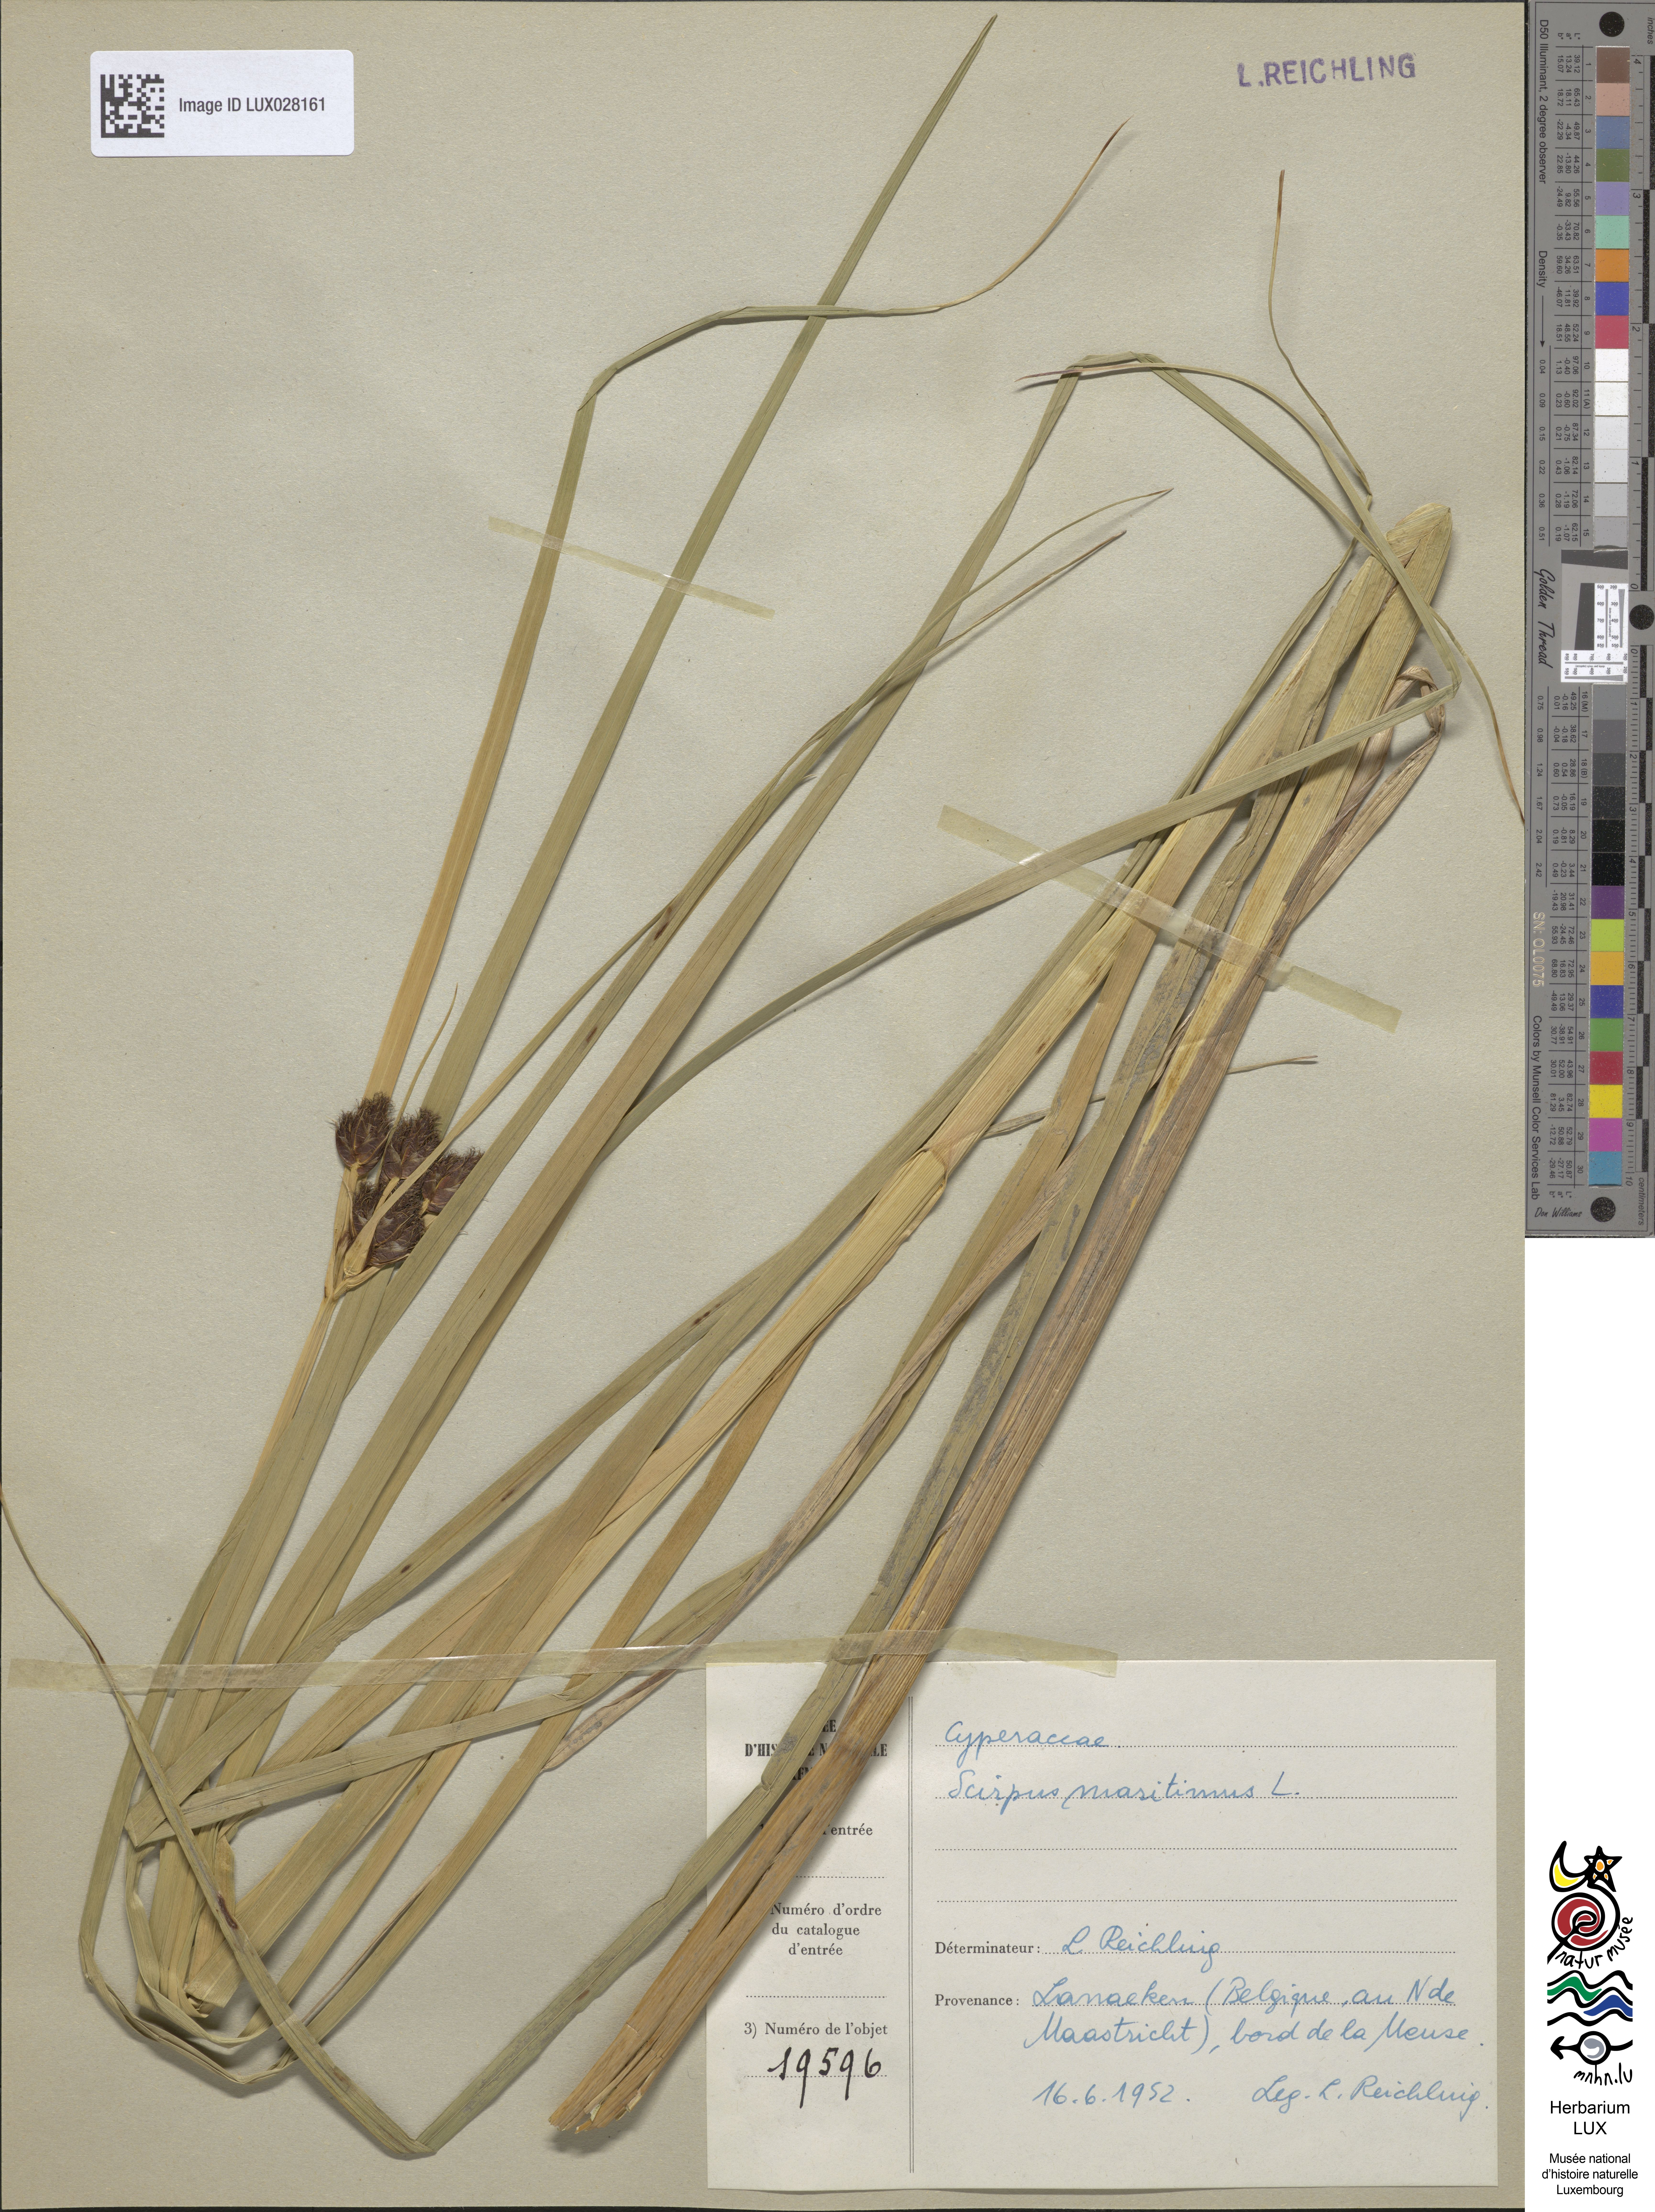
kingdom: Plantae
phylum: Tracheophyta
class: Liliopsida
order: Poales
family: Cyperaceae
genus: Bolboschoenus
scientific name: Bolboschoenus maritimus
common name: Sea club-rush
